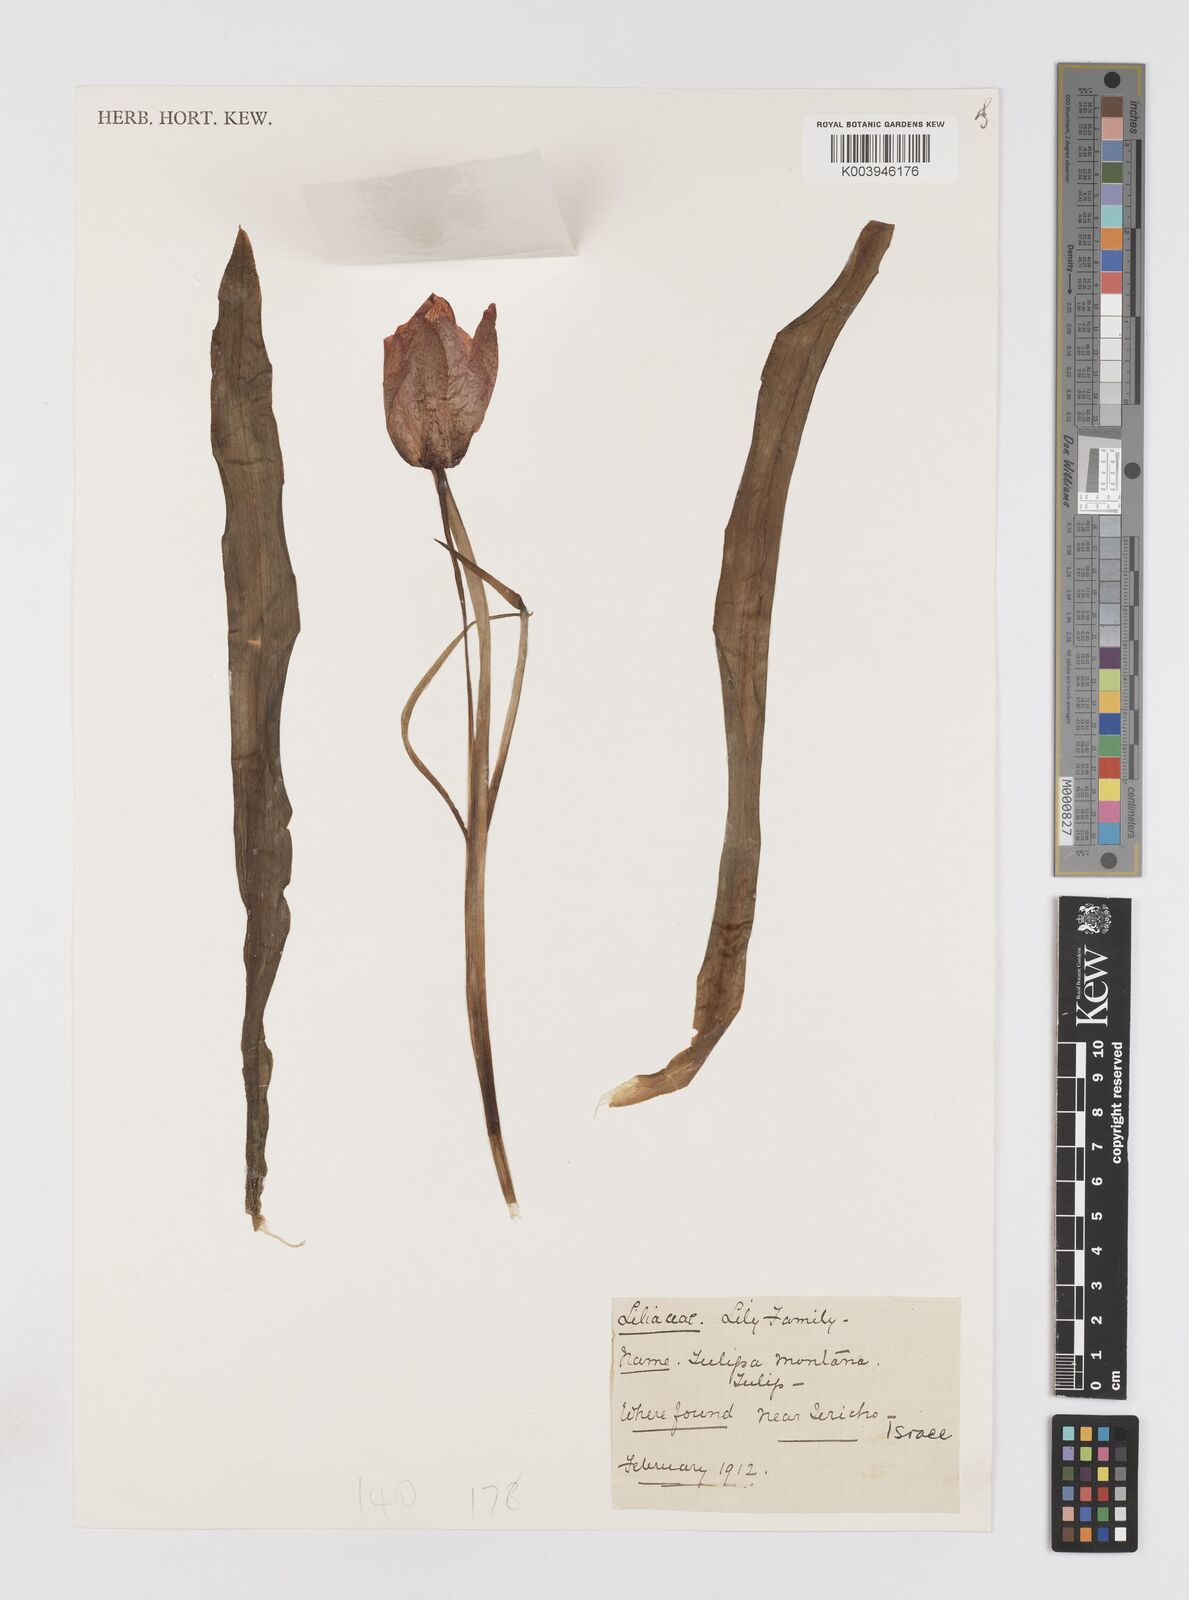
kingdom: Plantae
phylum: Tracheophyta
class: Liliopsida
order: Liliales
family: Liliaceae
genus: Tulipa
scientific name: Tulipa montana
